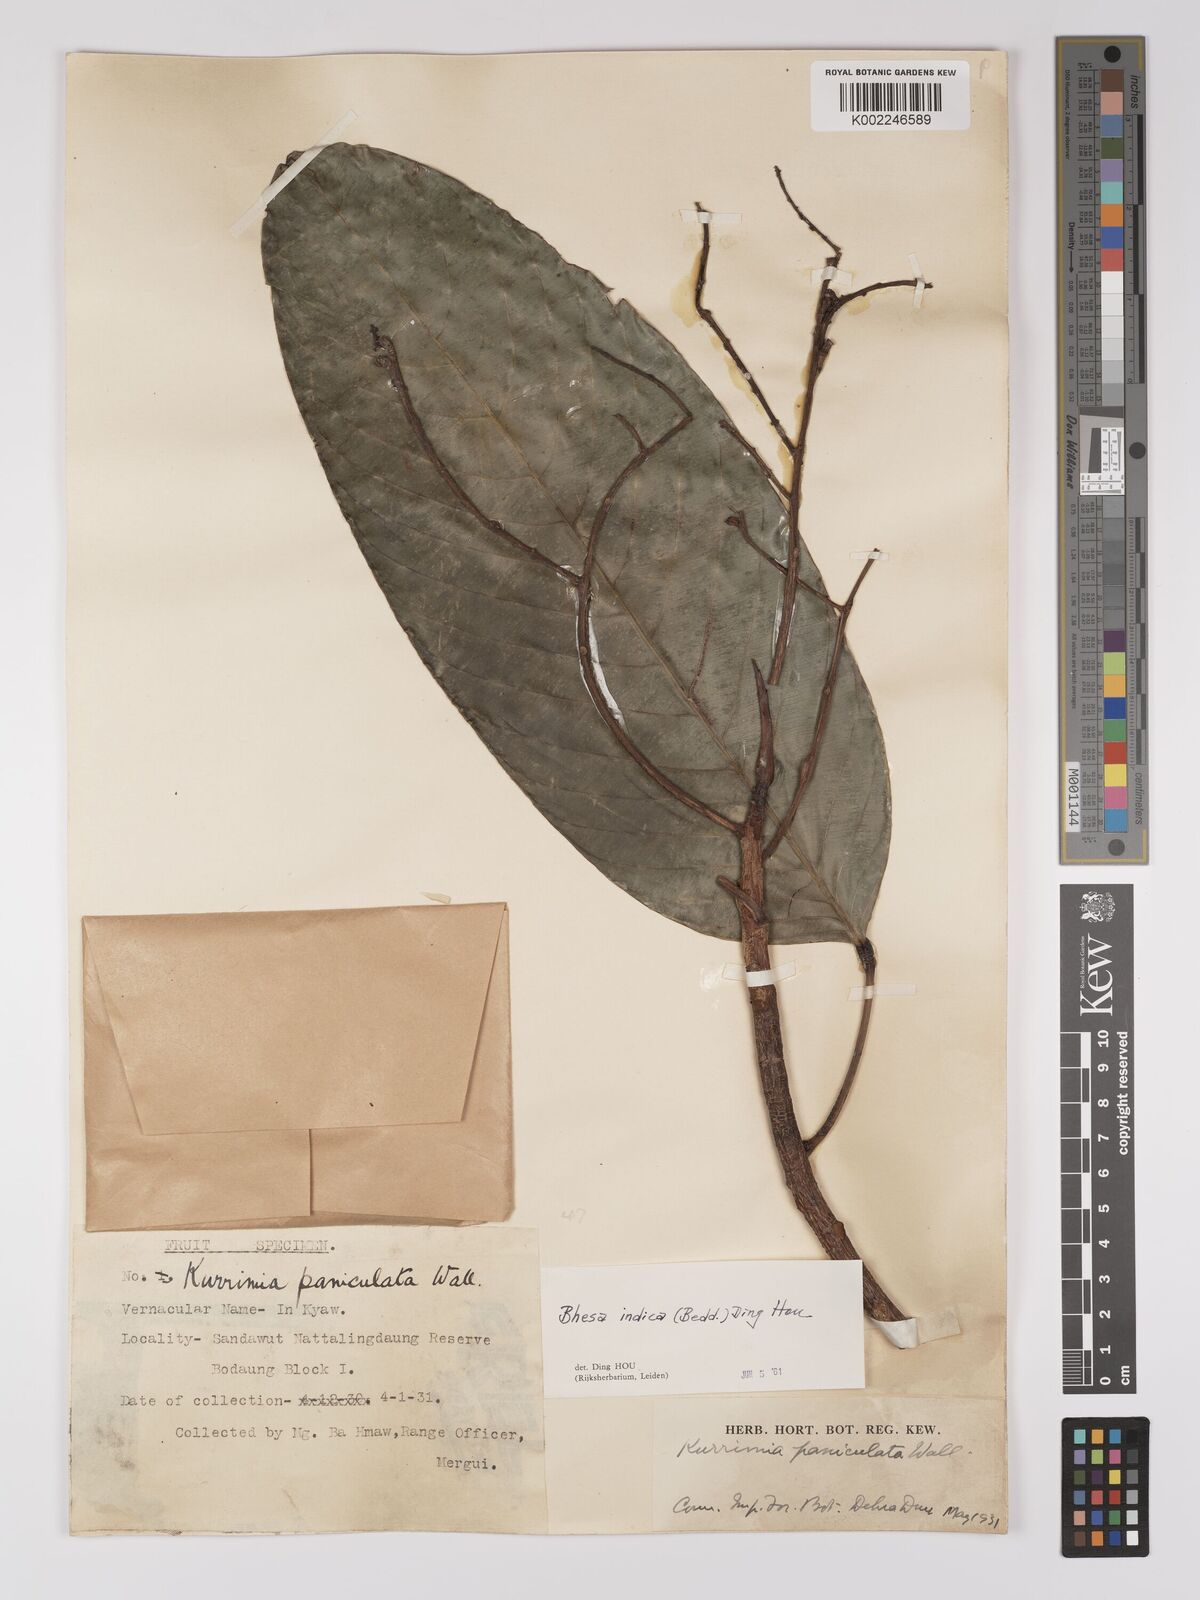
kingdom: Plantae
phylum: Tracheophyta
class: Magnoliopsida
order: Malpighiales
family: Centroplacaceae
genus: Bhesa
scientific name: Bhesa indica
